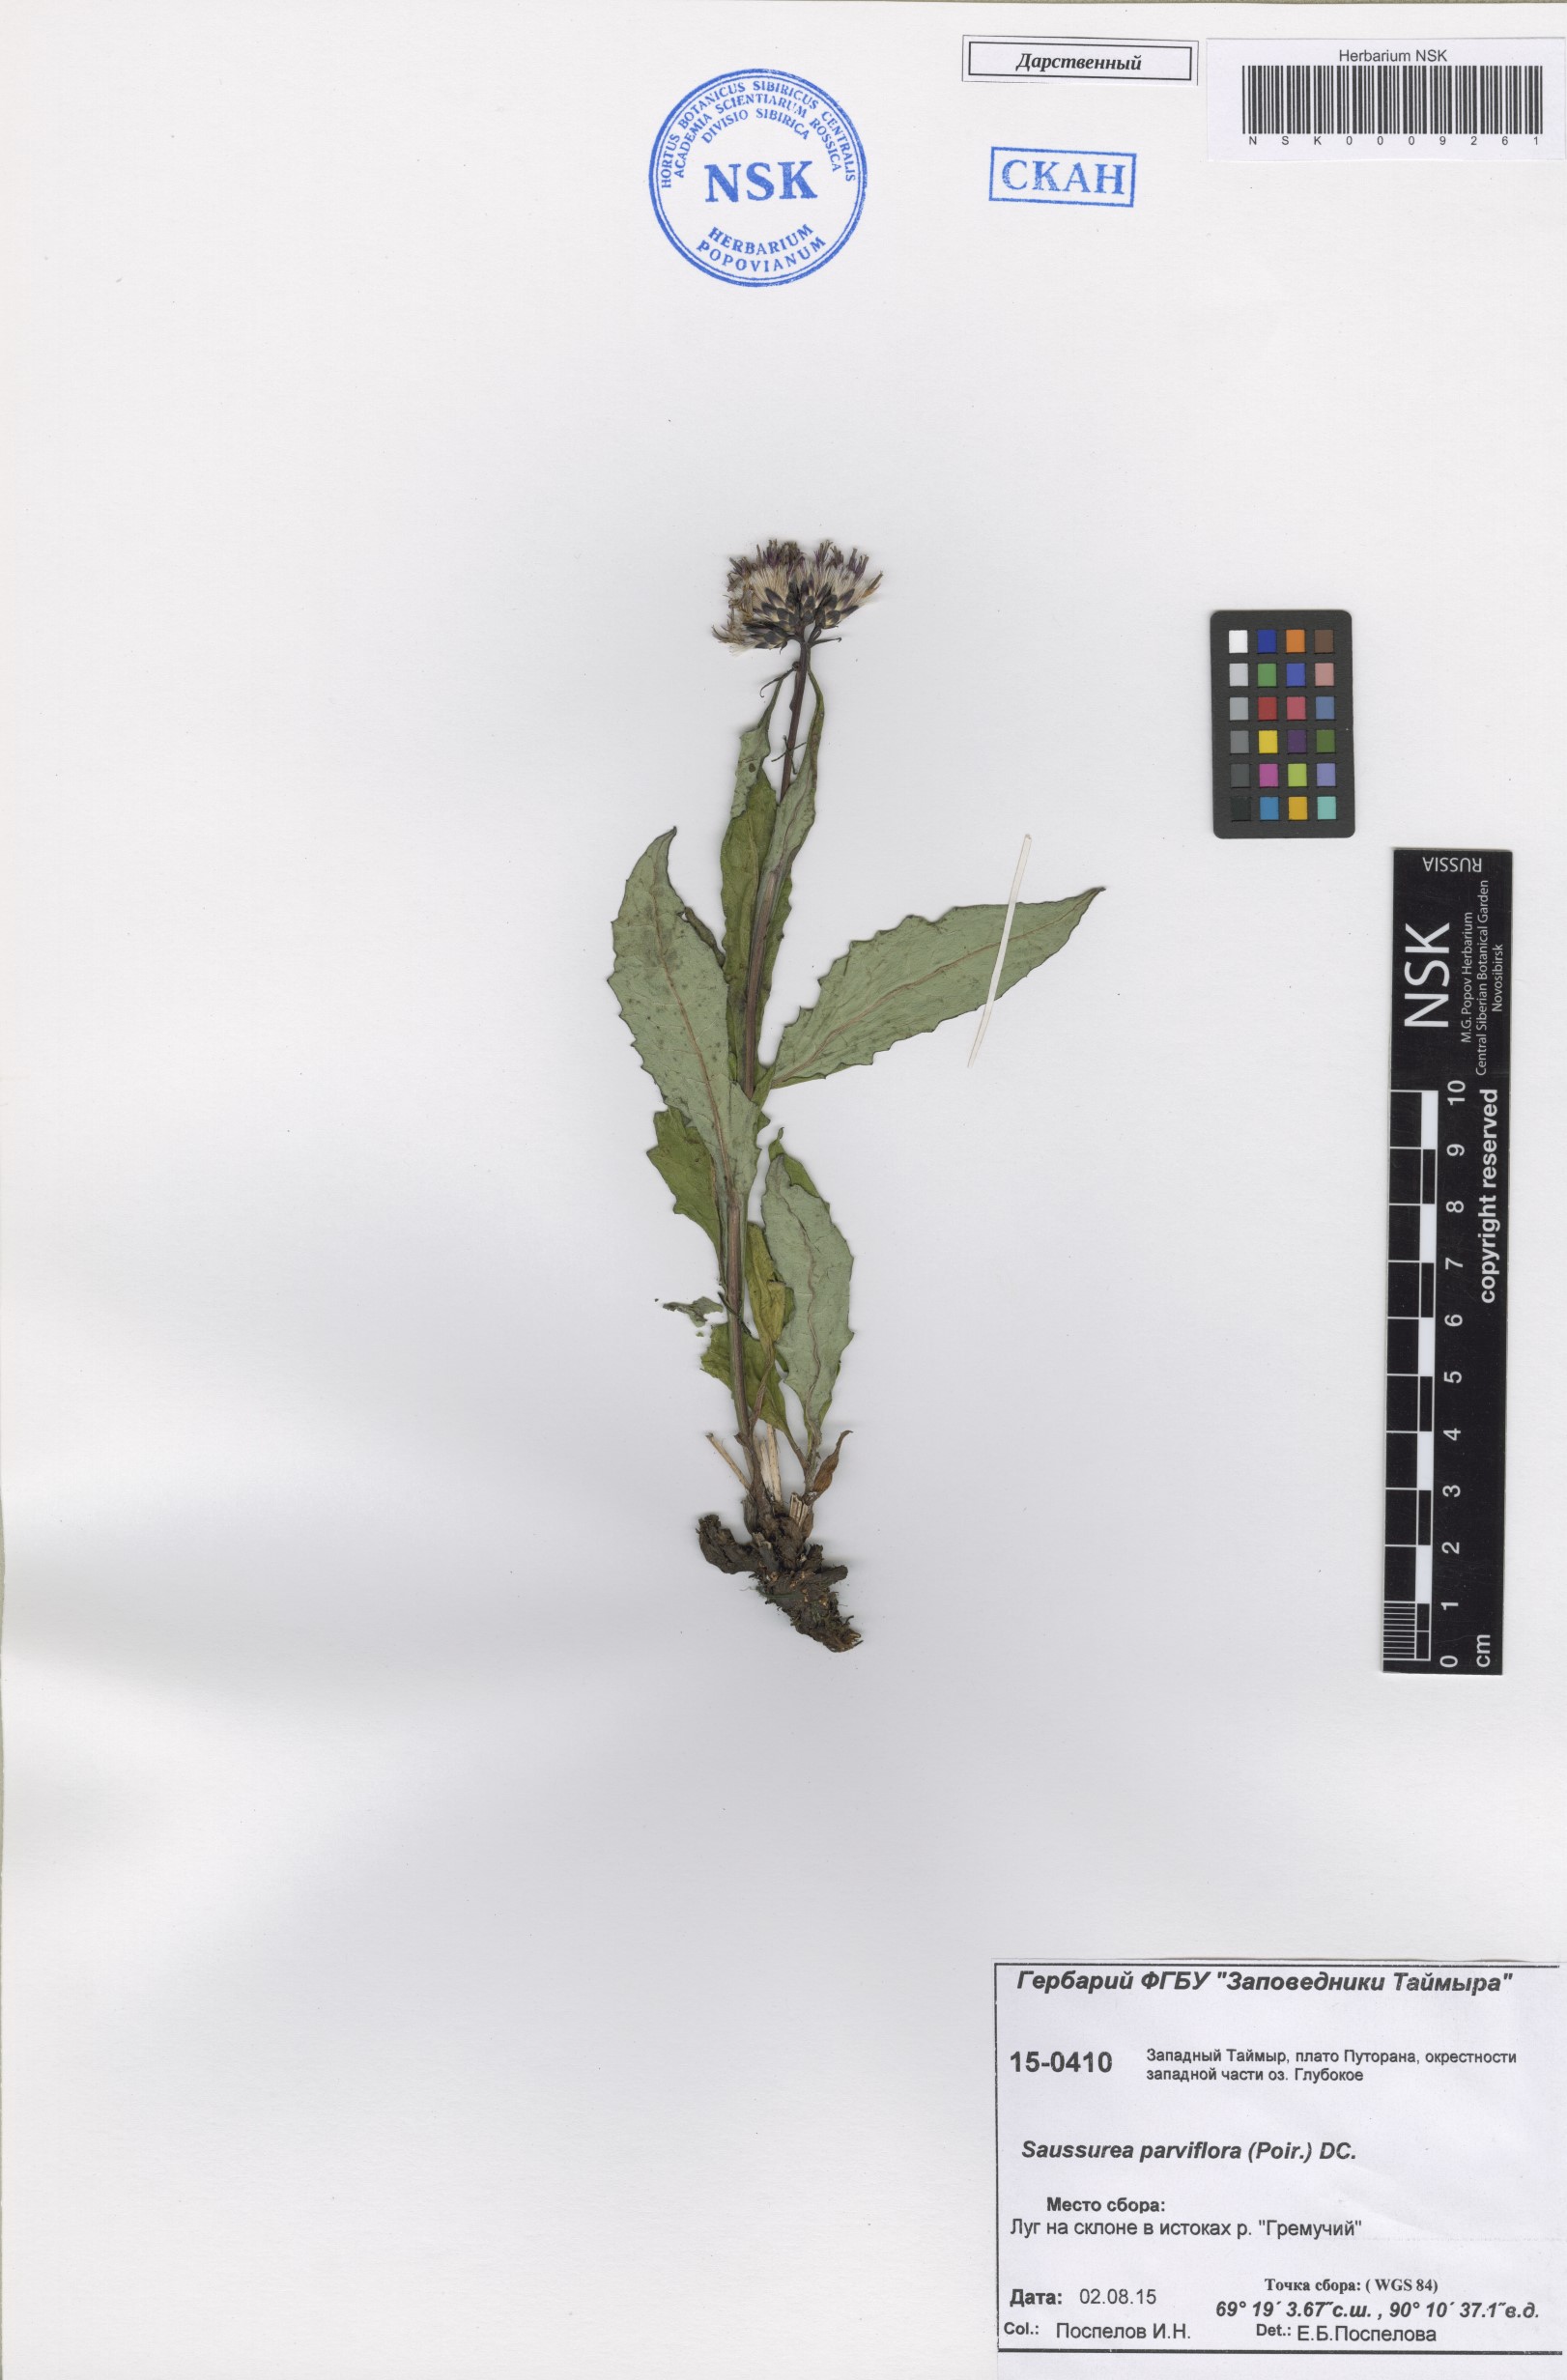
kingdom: Plantae
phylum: Tracheophyta
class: Magnoliopsida
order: Asterales
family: Asteraceae
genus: Saussurea
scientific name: Saussurea parviflora
